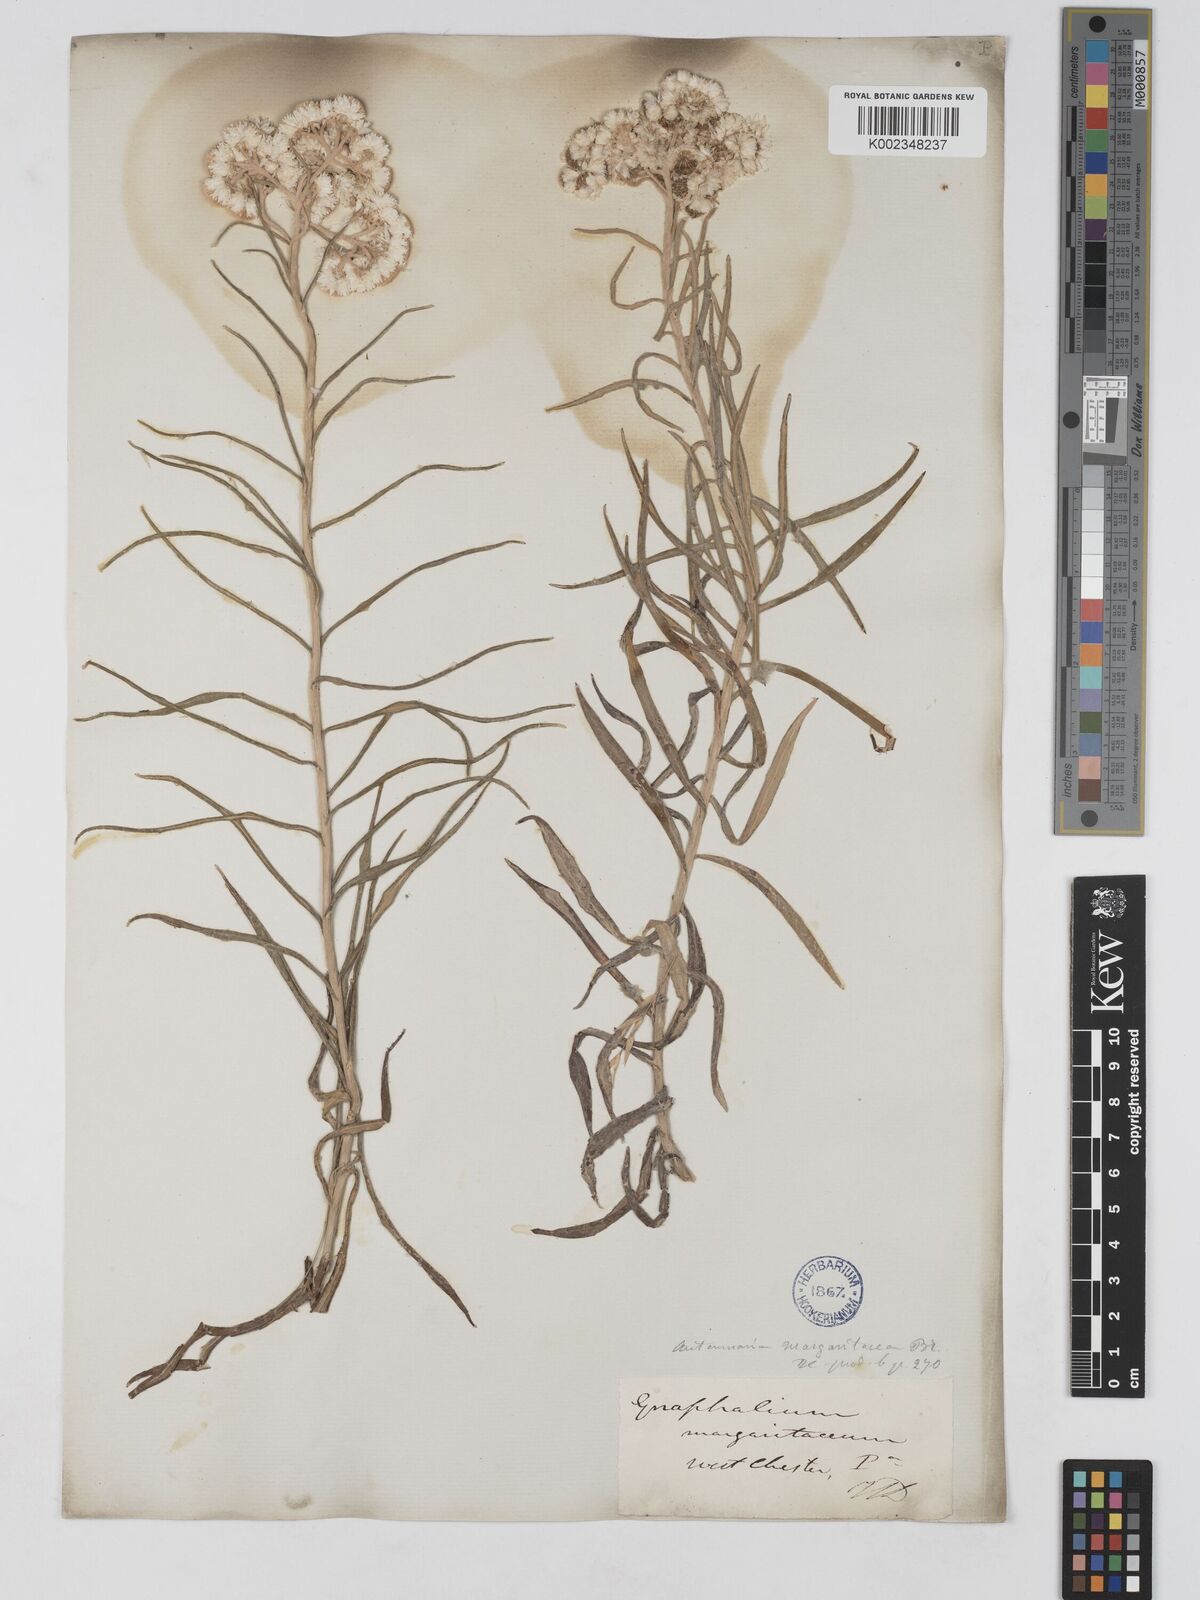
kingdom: Plantae
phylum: Tracheophyta
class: Magnoliopsida
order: Asterales
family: Asteraceae
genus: Anaphalis
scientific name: Anaphalis margaritacea
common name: Pearly everlasting
